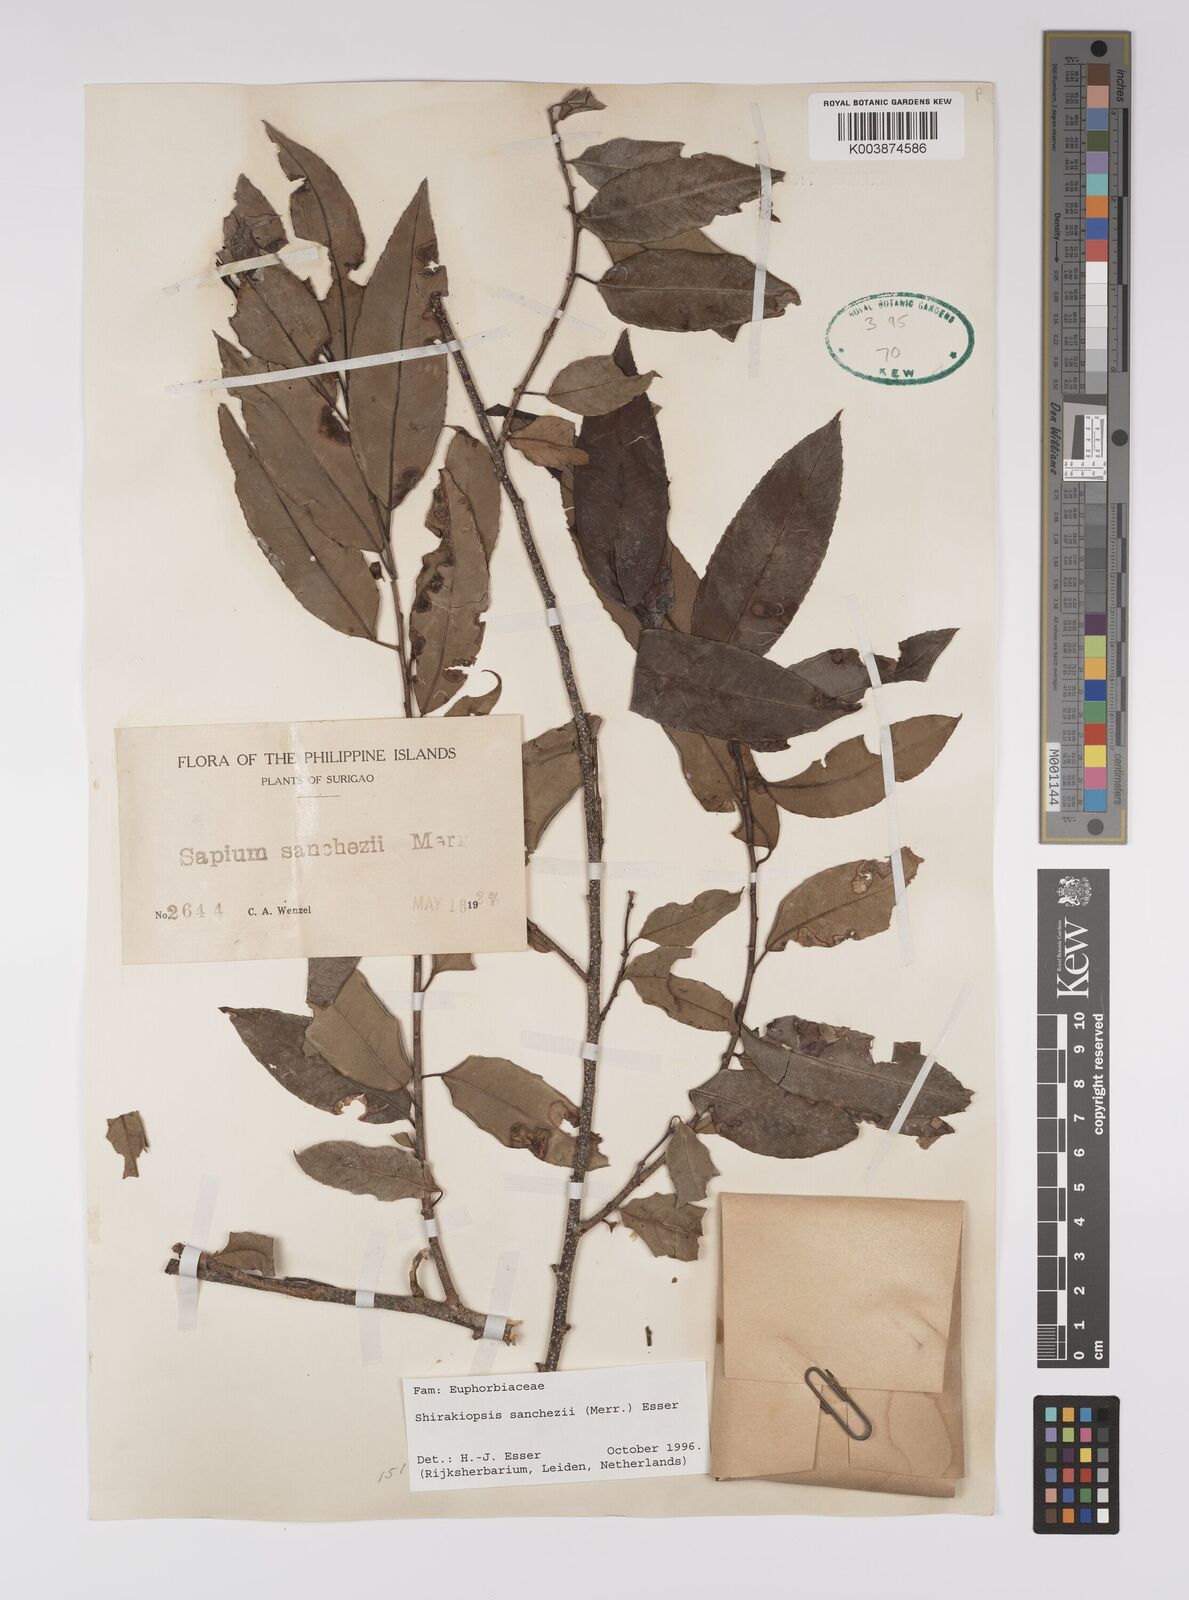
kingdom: Plantae
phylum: Tracheophyta
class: Magnoliopsida
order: Malpighiales
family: Euphorbiaceae
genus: Shirakiopsis
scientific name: Shirakiopsis sanchezii
